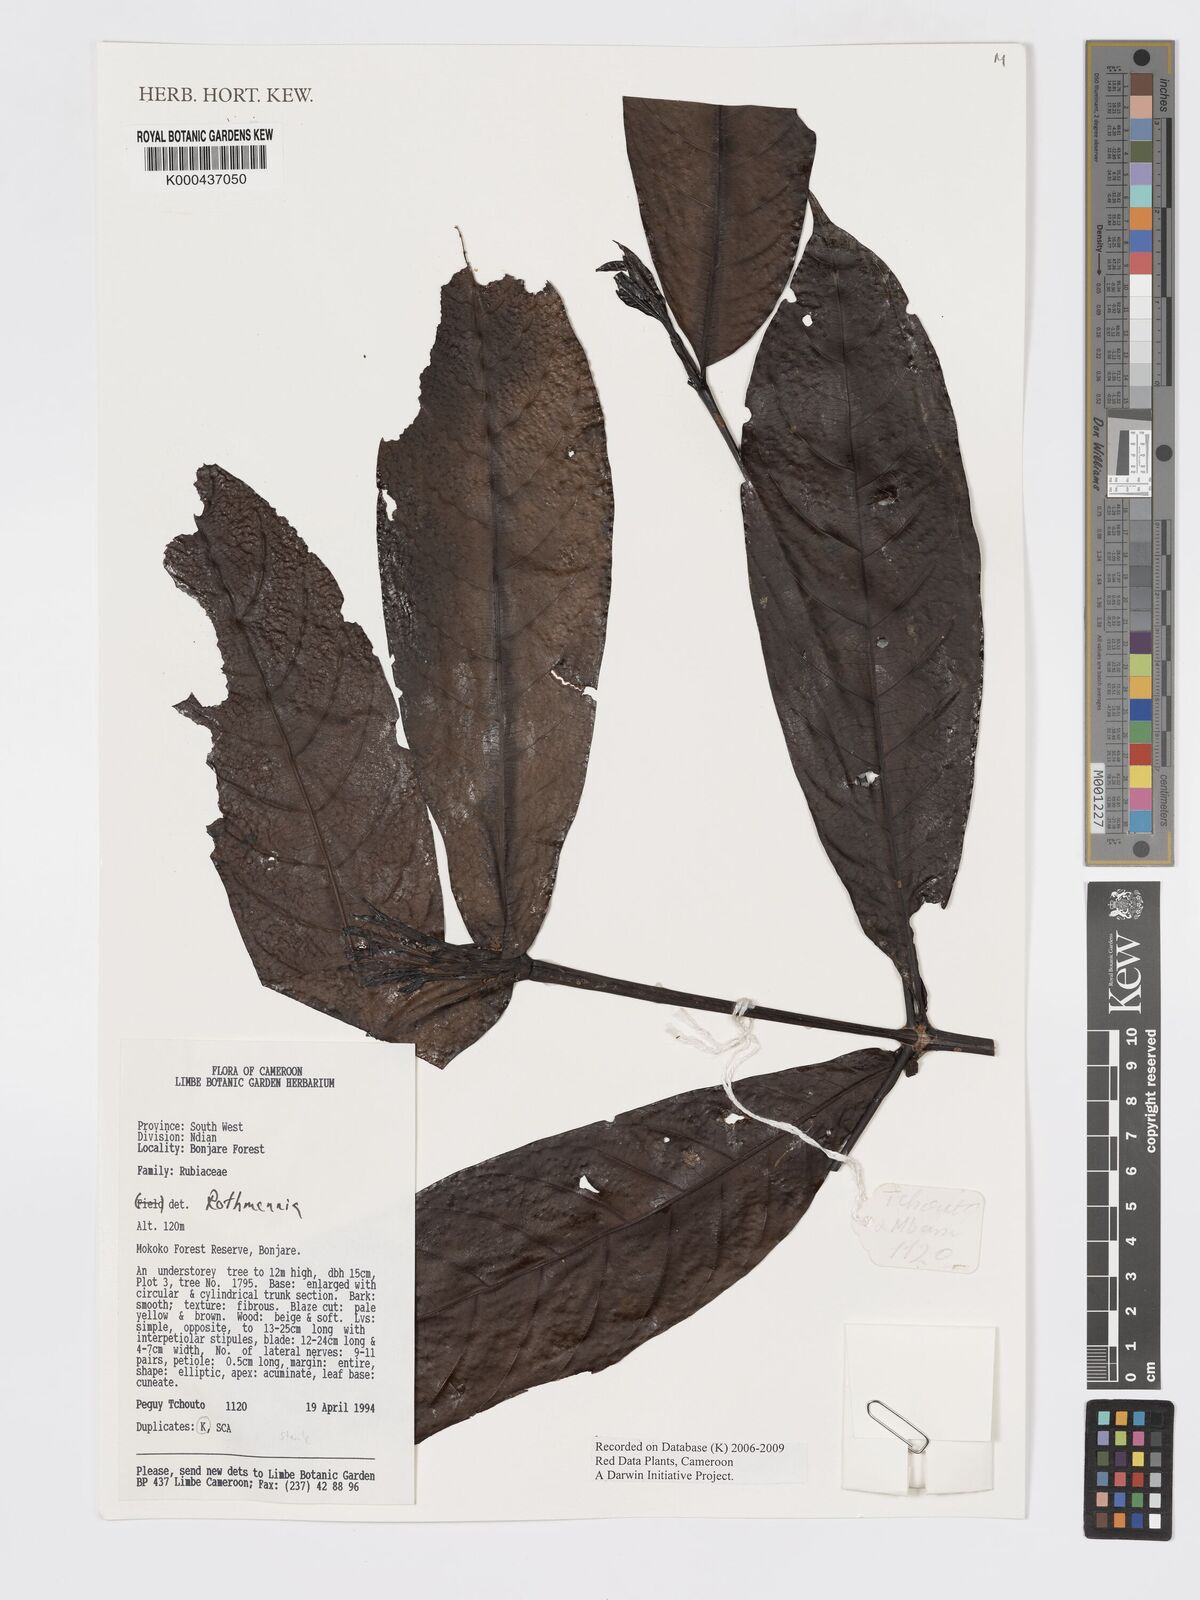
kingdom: Plantae
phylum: Tracheophyta
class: Magnoliopsida
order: Gentianales
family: Rubiaceae
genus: Rothmannia
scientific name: Rothmannia
